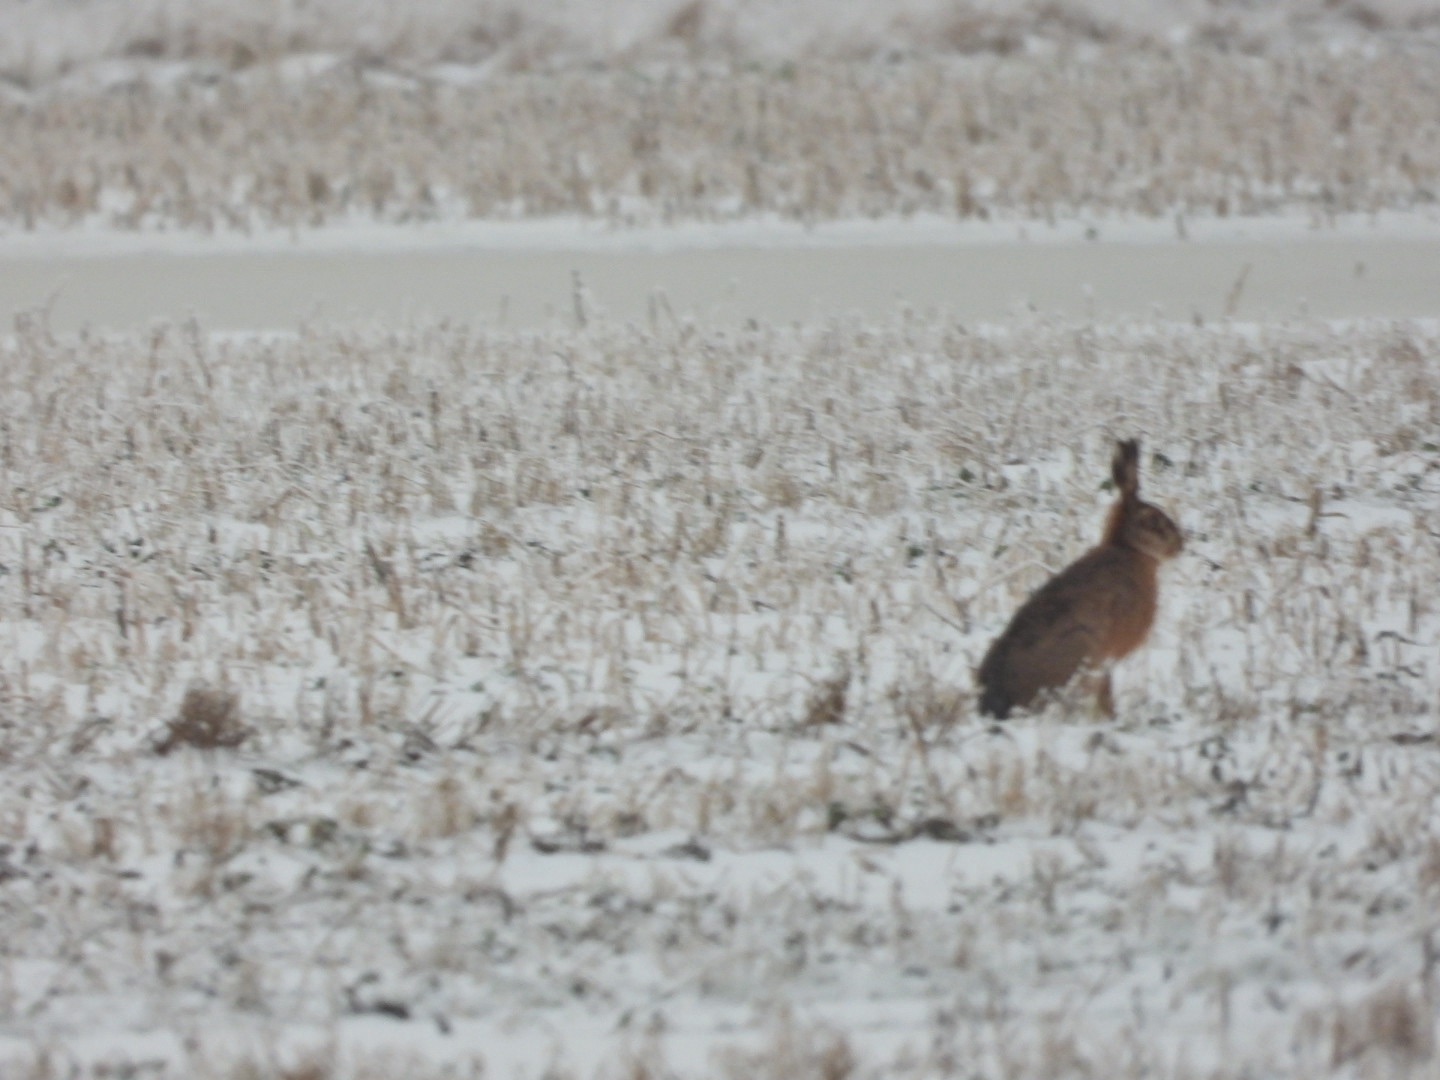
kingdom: Animalia
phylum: Chordata
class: Mammalia
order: Lagomorpha
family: Leporidae
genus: Lepus
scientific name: Lepus europaeus
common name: Hare
